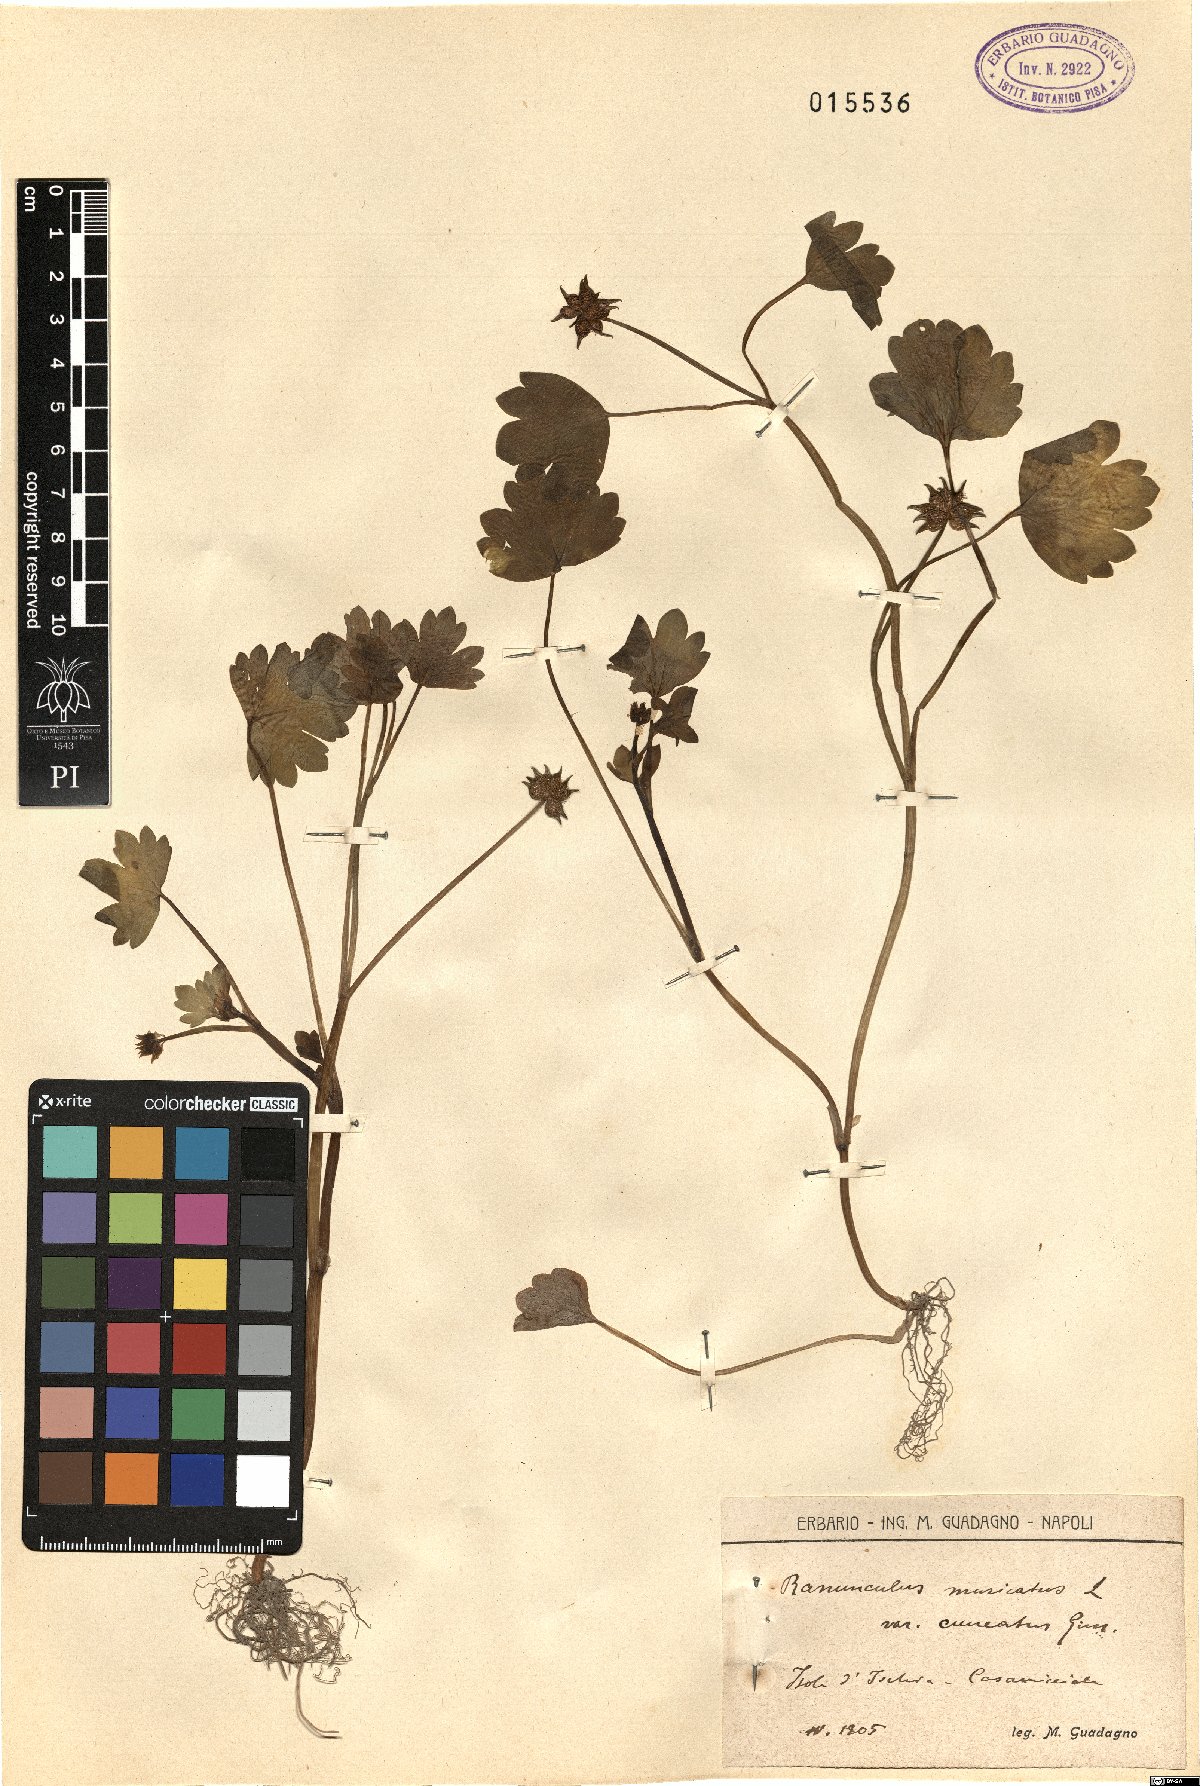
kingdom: Plantae
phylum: Tracheophyta
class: Magnoliopsida
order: Ranunculales
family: Ranunculaceae
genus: Ranunculus
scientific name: Ranunculus muricatus
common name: Rough-fruited buttercup
